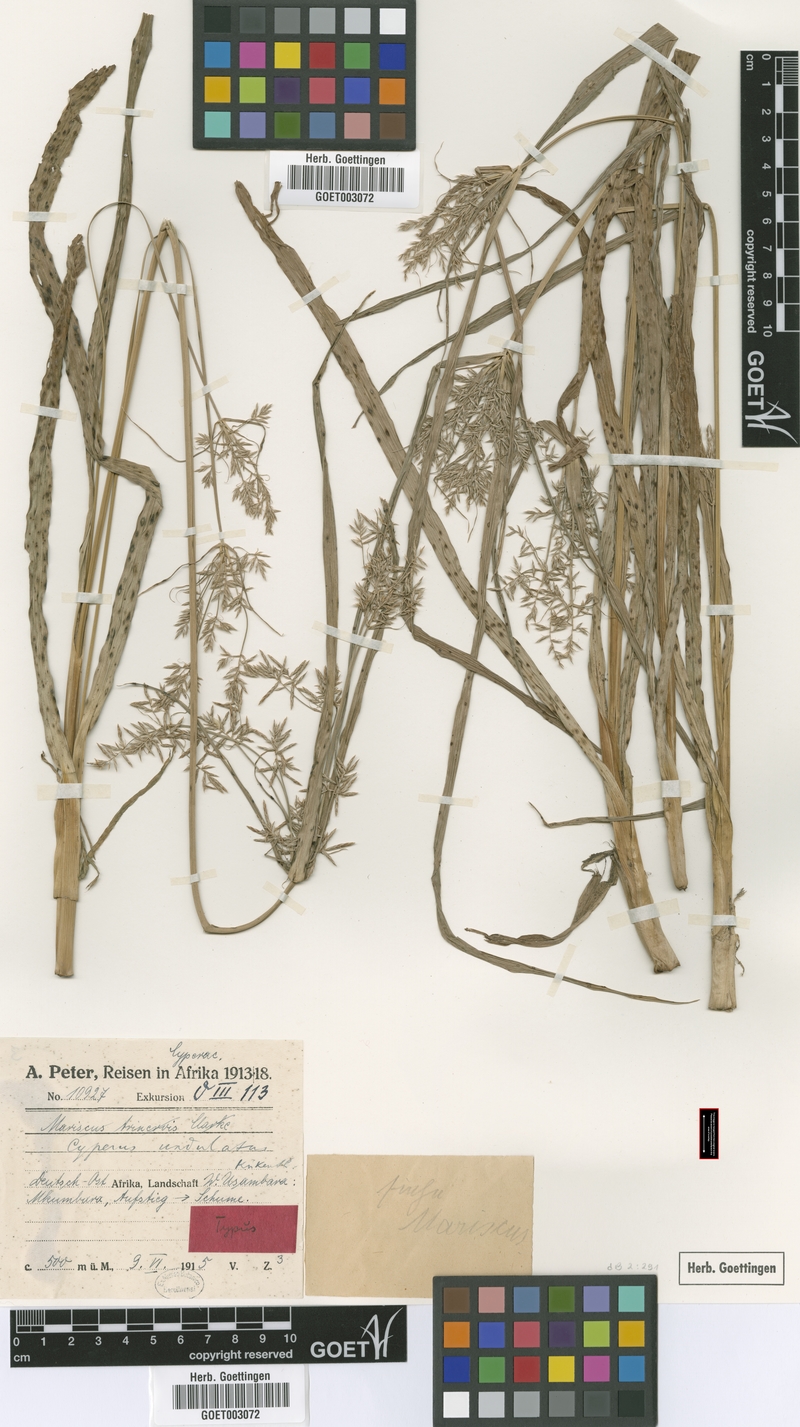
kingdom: Plantae
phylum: Tracheophyta
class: Liliopsida
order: Poales
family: Cyperaceae
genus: Cyperus
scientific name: Cyperus undulatus
